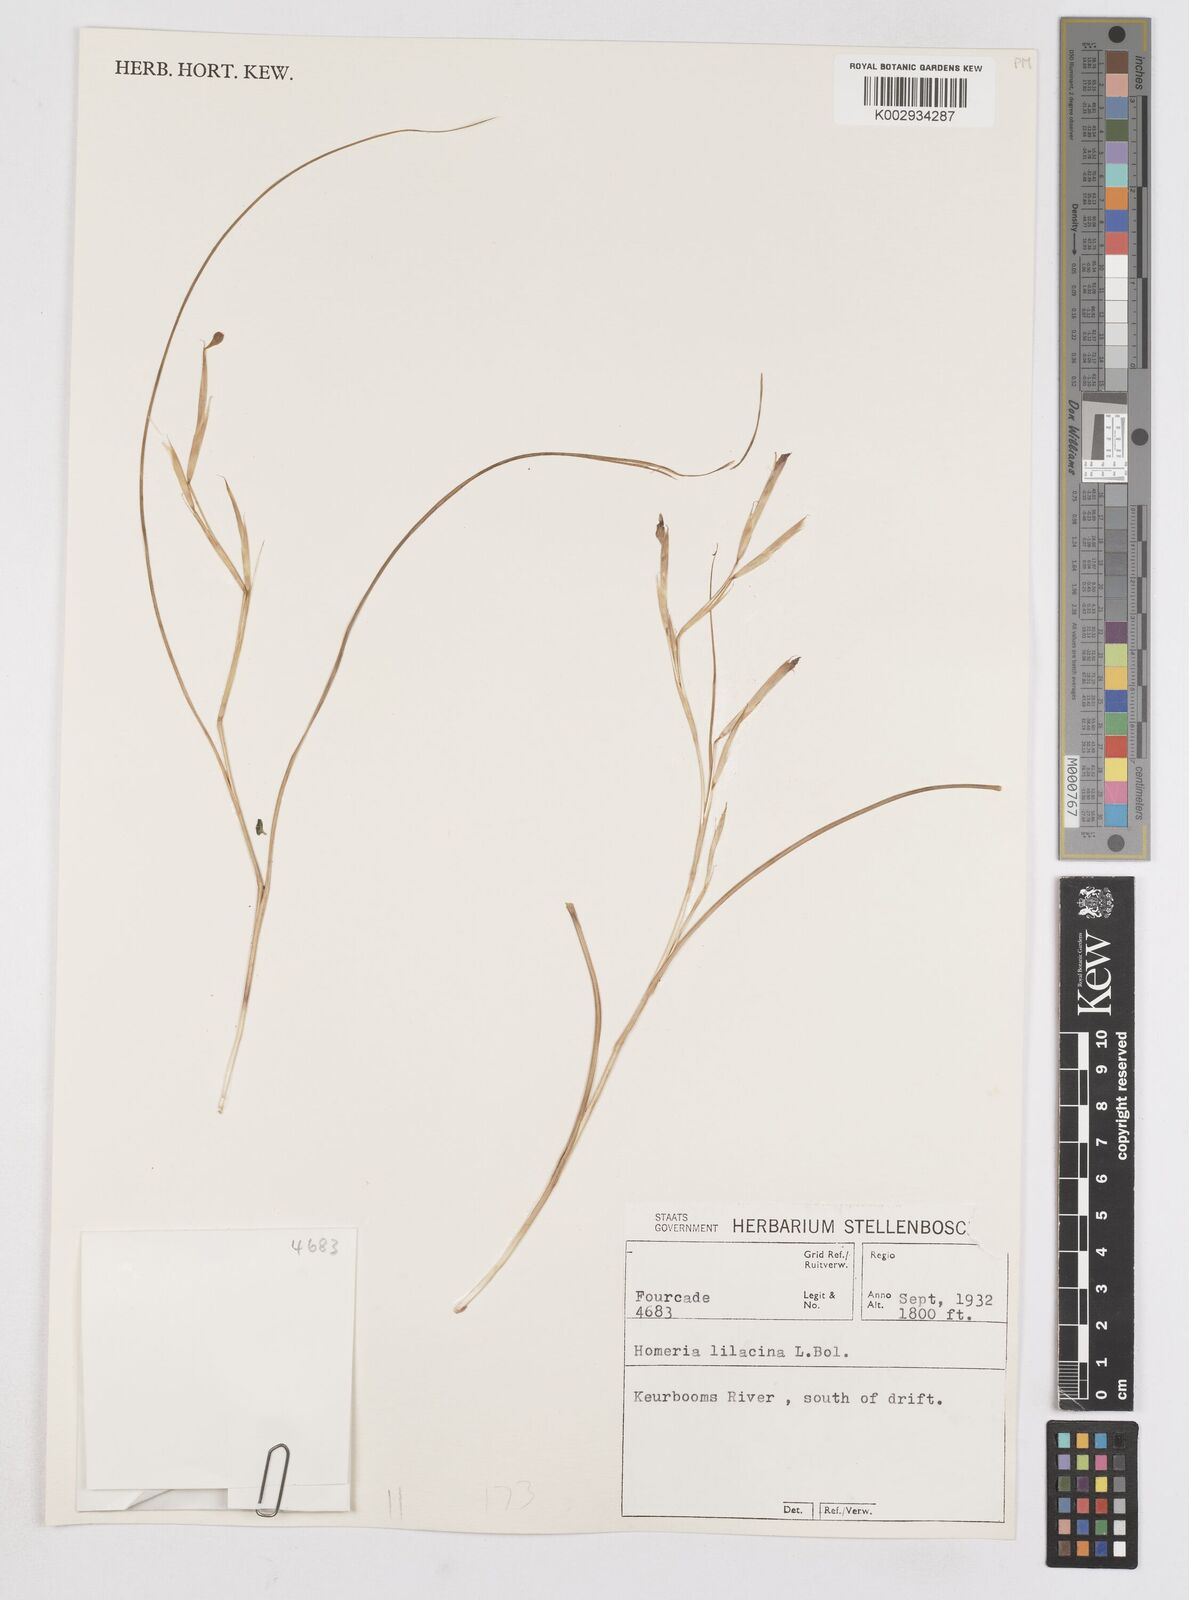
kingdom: Plantae
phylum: Tracheophyta
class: Liliopsida
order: Asparagales
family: Iridaceae
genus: Moraea
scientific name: Moraea
